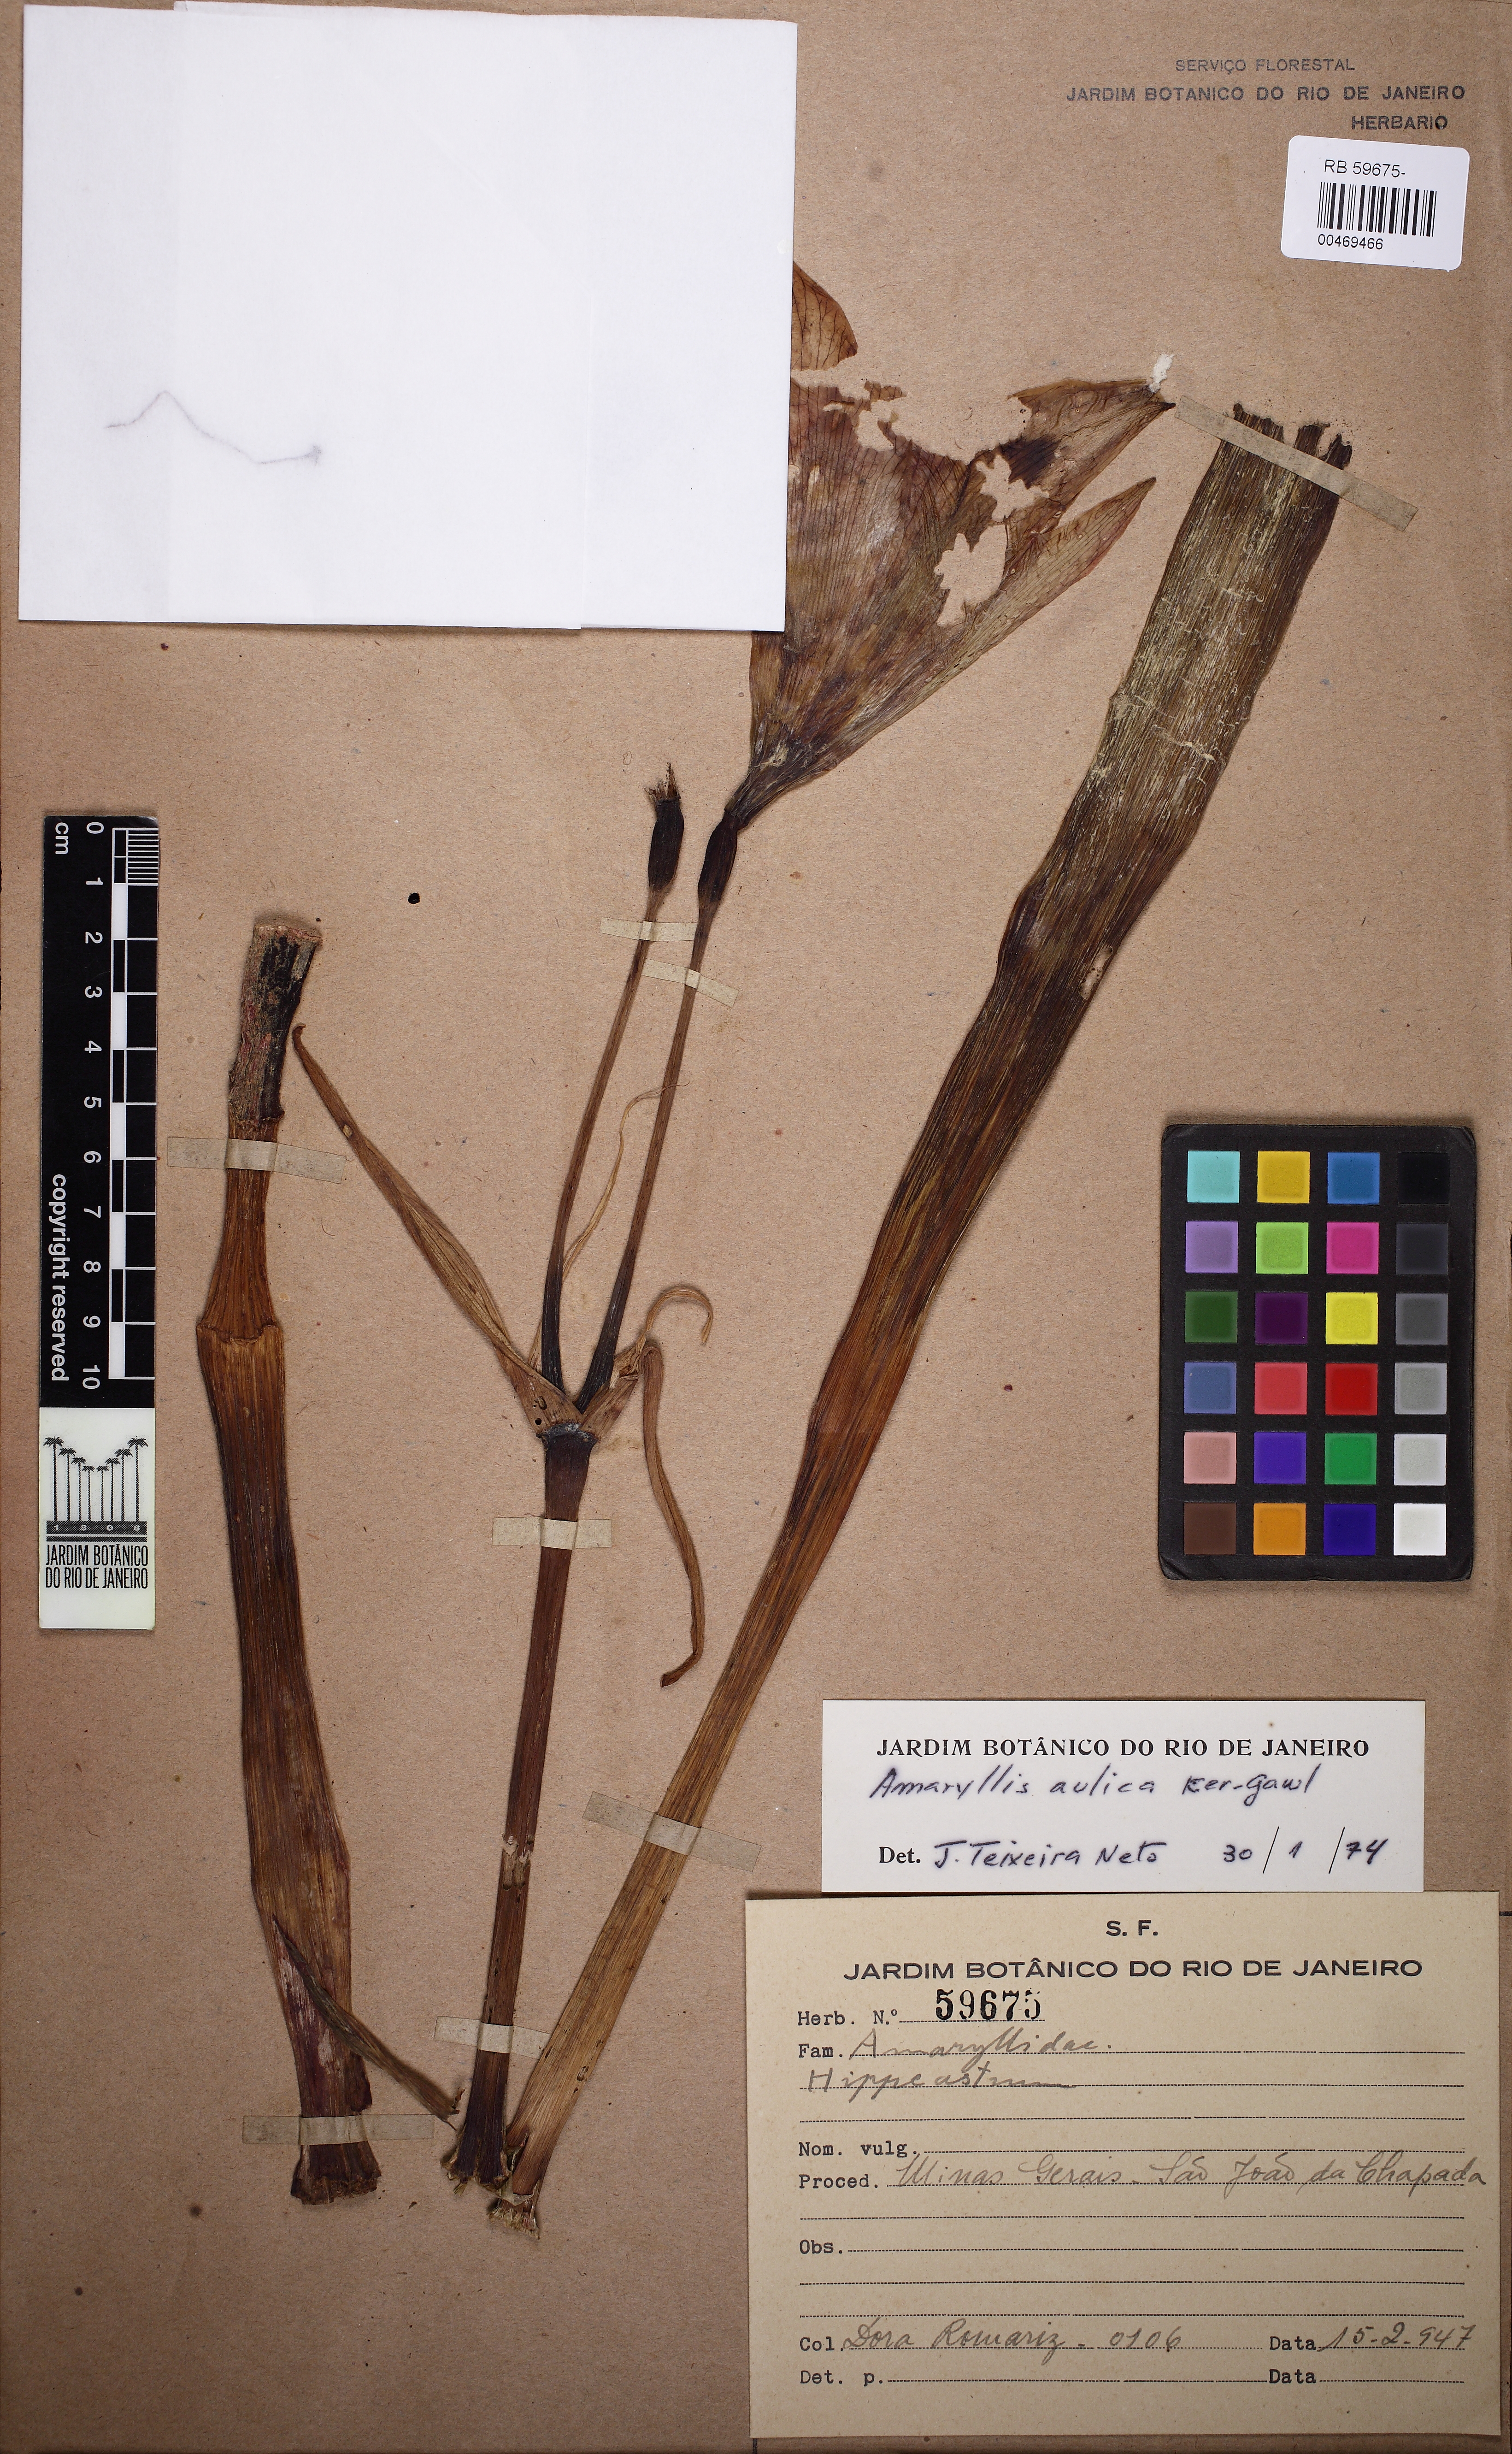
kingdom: Plantae
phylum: Tracheophyta
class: Liliopsida
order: Asparagales
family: Amaryllidaceae
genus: Hippeastrum
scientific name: Hippeastrum glaucescens
